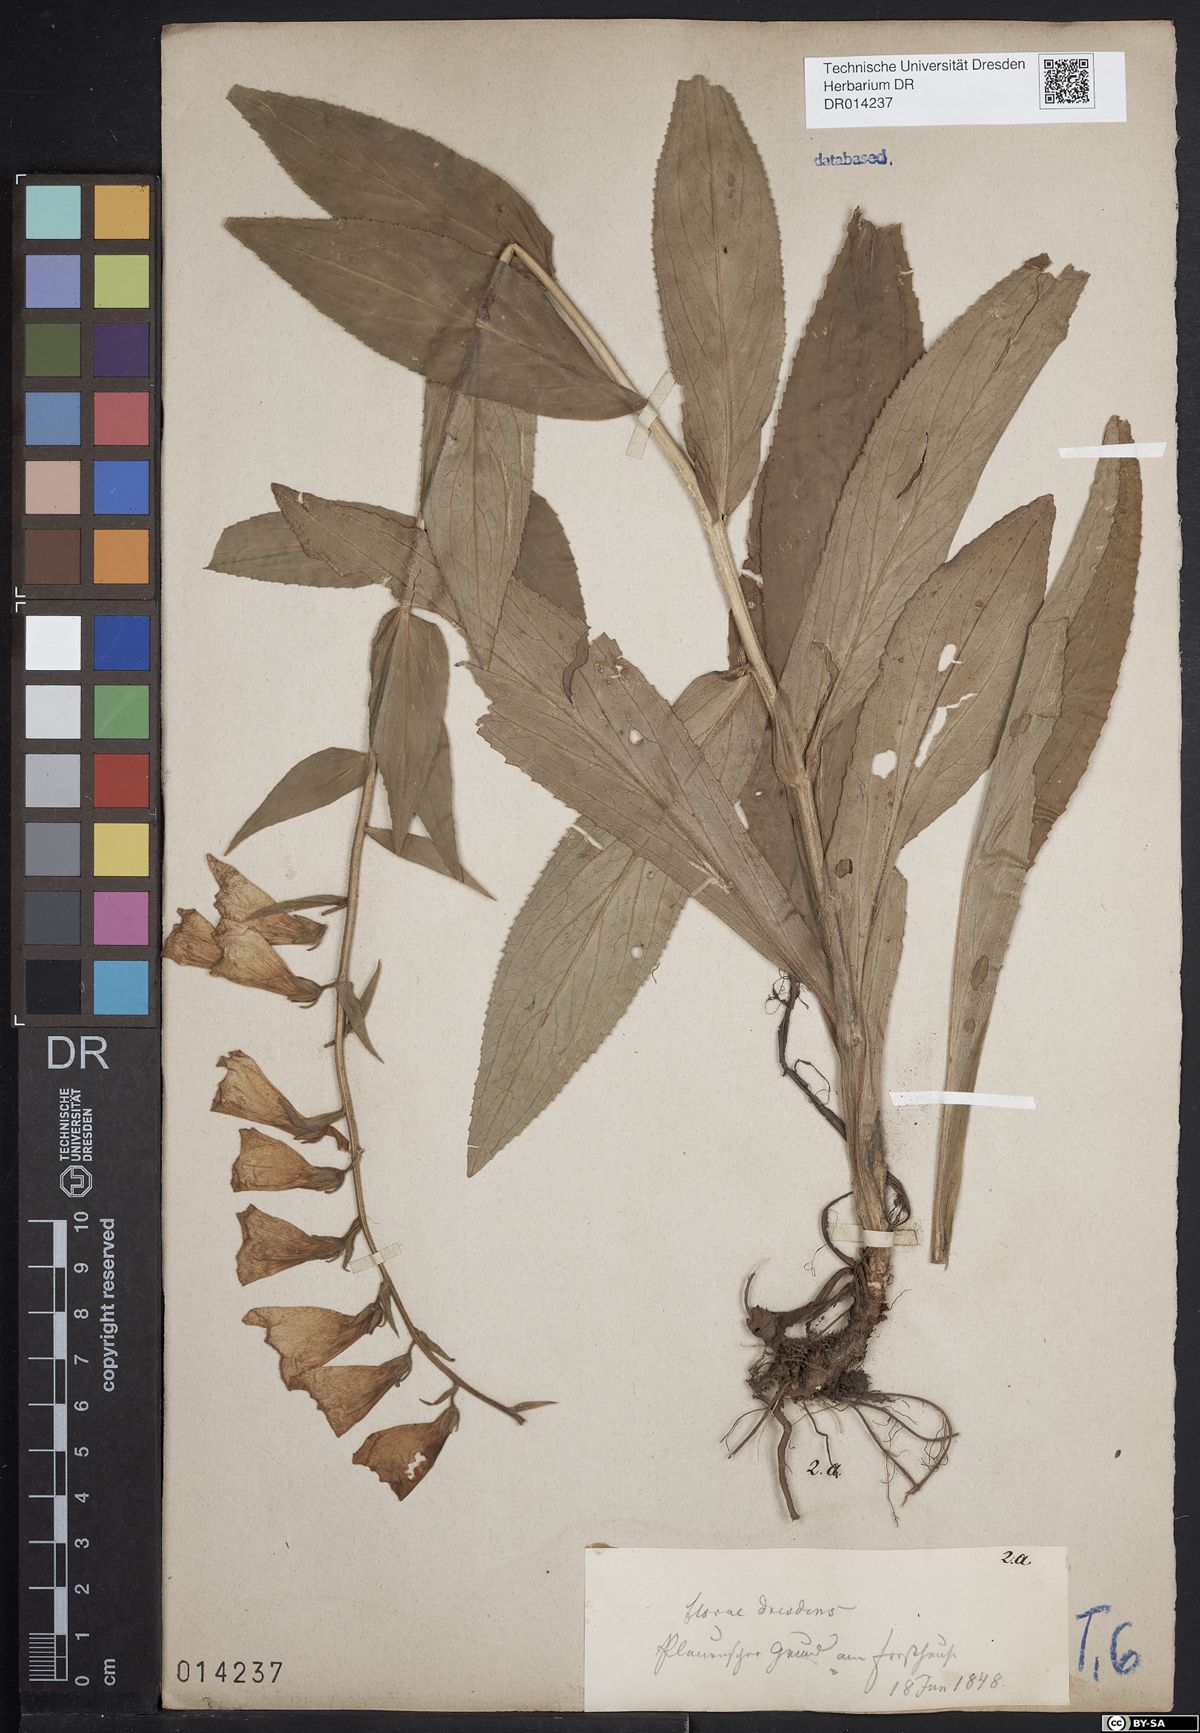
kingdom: Plantae
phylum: Tracheophyta
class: Magnoliopsida
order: Lamiales
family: Plantaginaceae
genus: Digitalis
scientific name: Digitalis grandiflora
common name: Yellow foxglove
